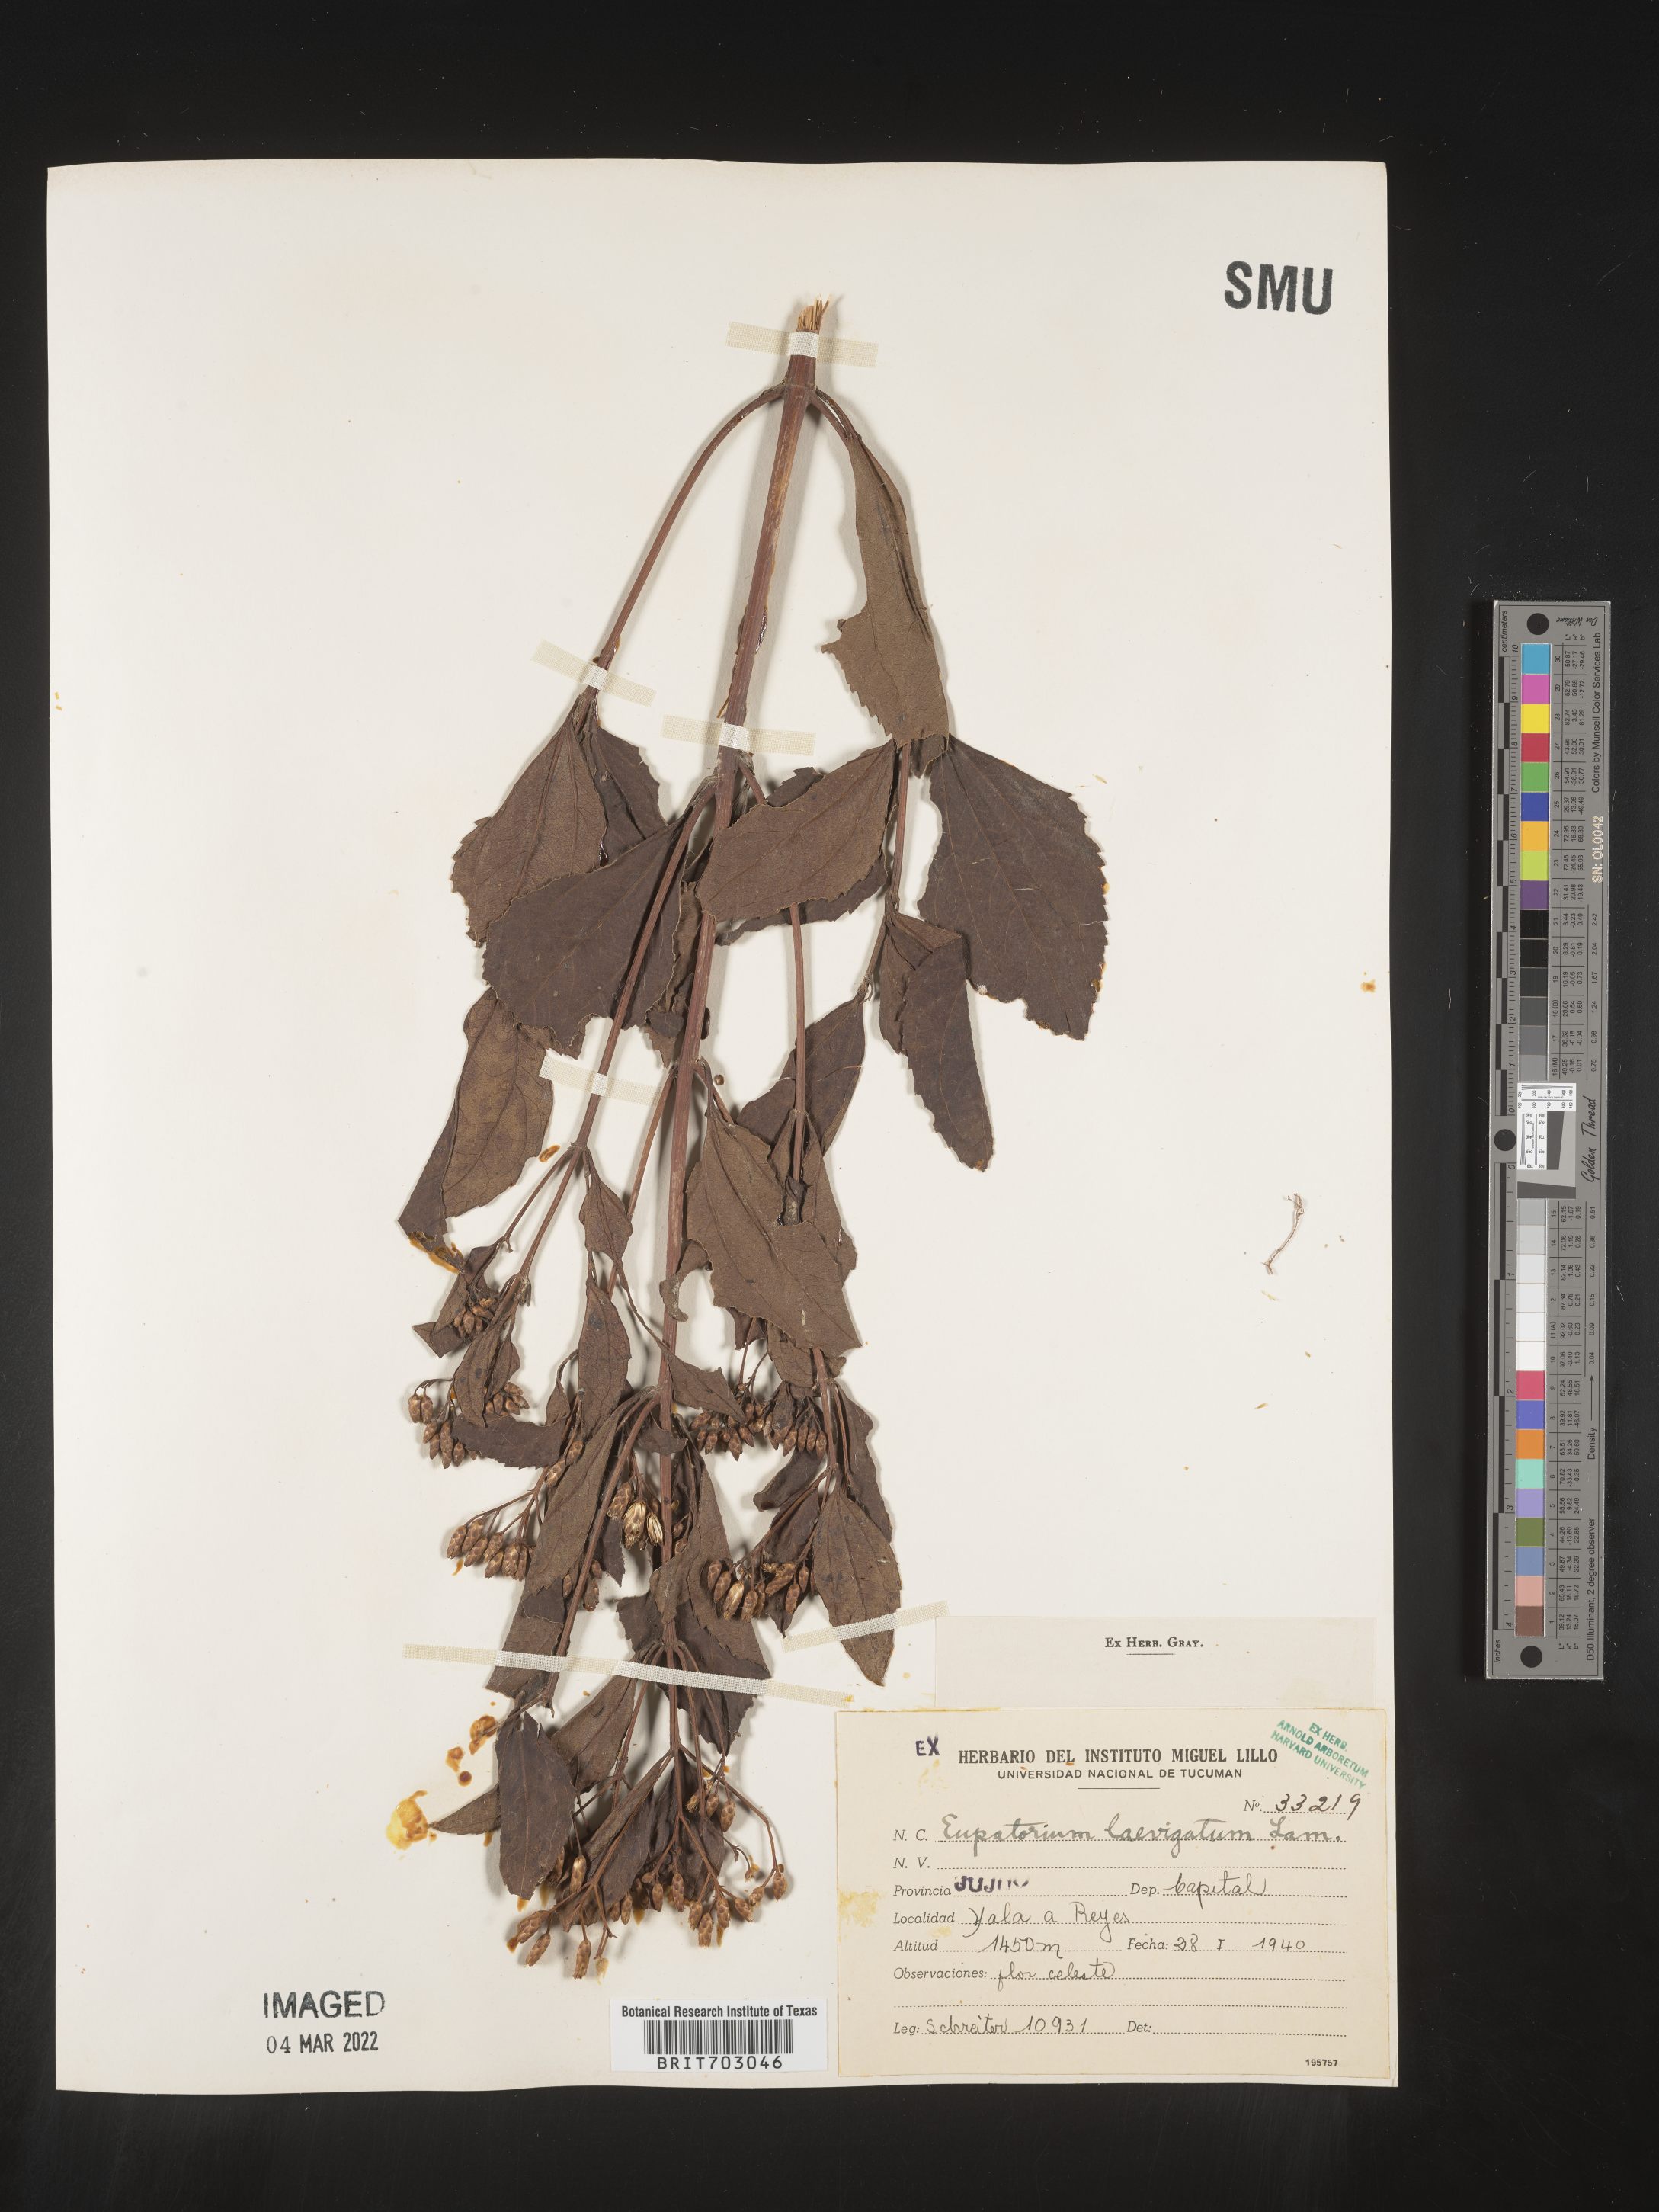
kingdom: Plantae
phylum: Tracheophyta
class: Magnoliopsida
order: Asterales
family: Asteraceae
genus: Eupatorium
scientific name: Eupatorium
